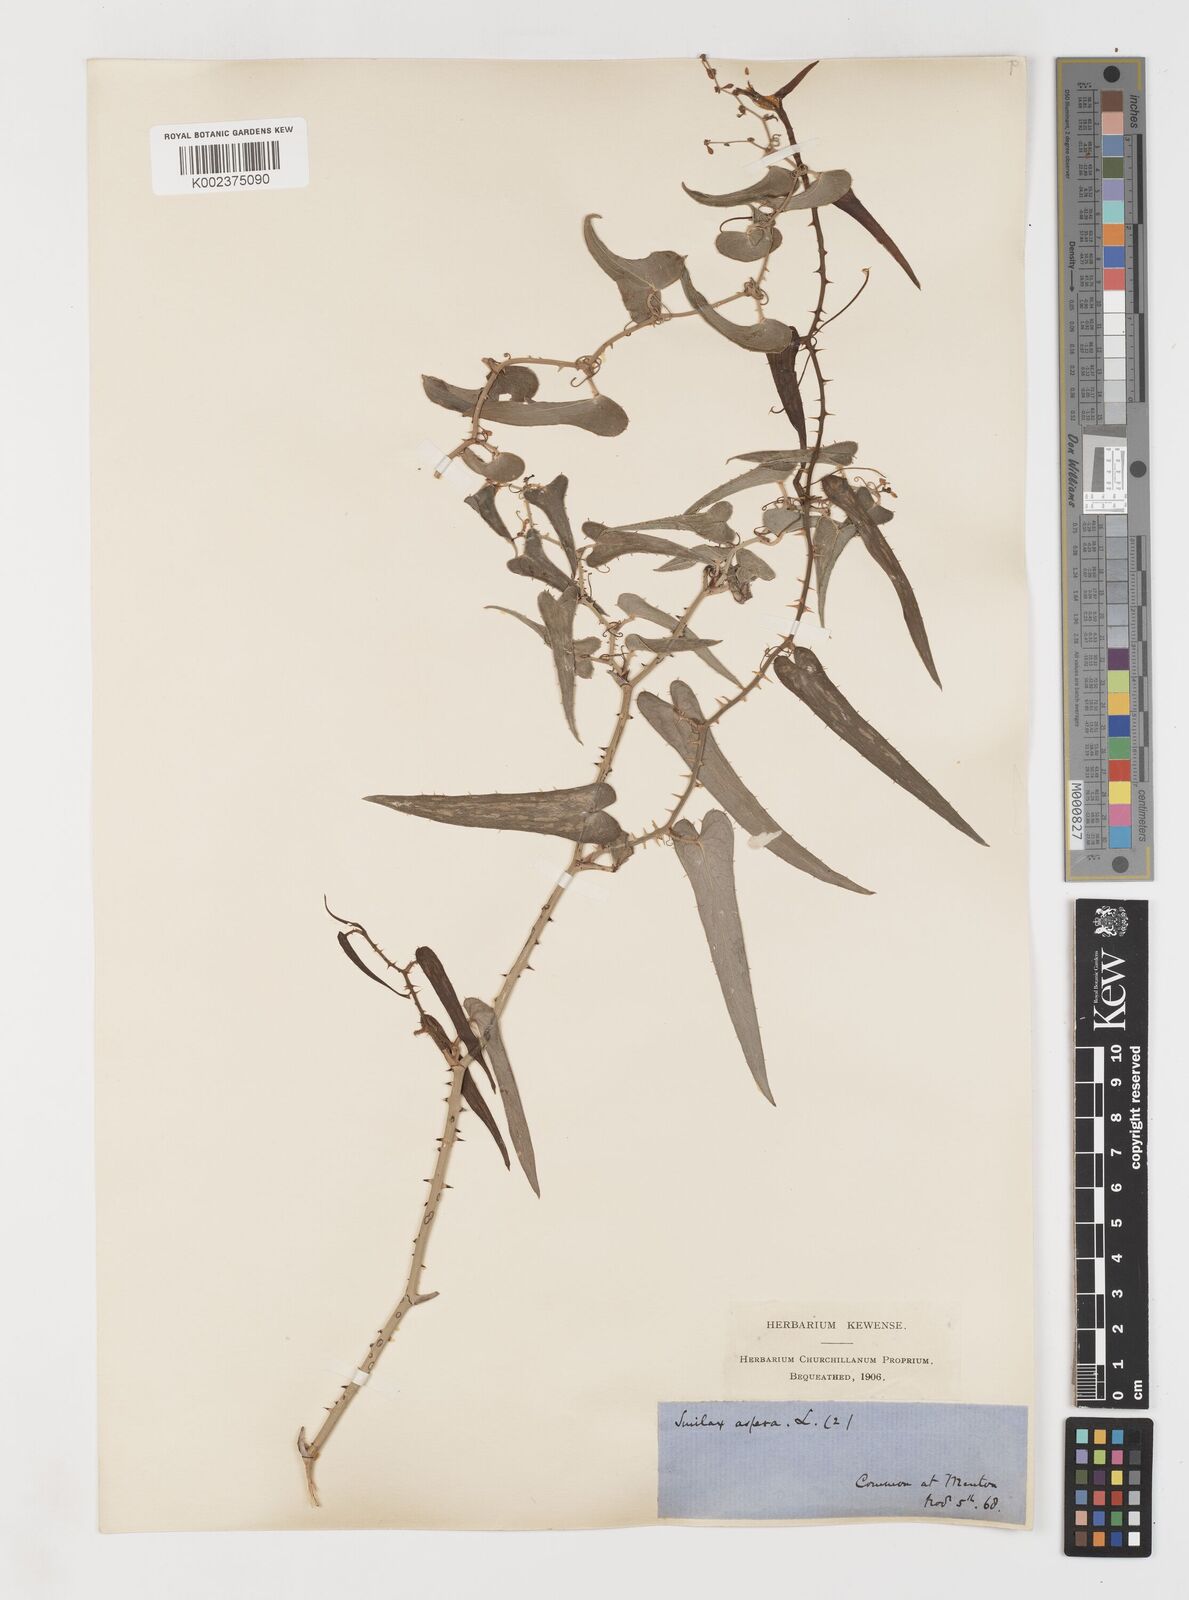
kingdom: Plantae
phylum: Tracheophyta
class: Liliopsida
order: Liliales
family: Smilacaceae
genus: Smilax
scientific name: Smilax aspera
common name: Common smilax
